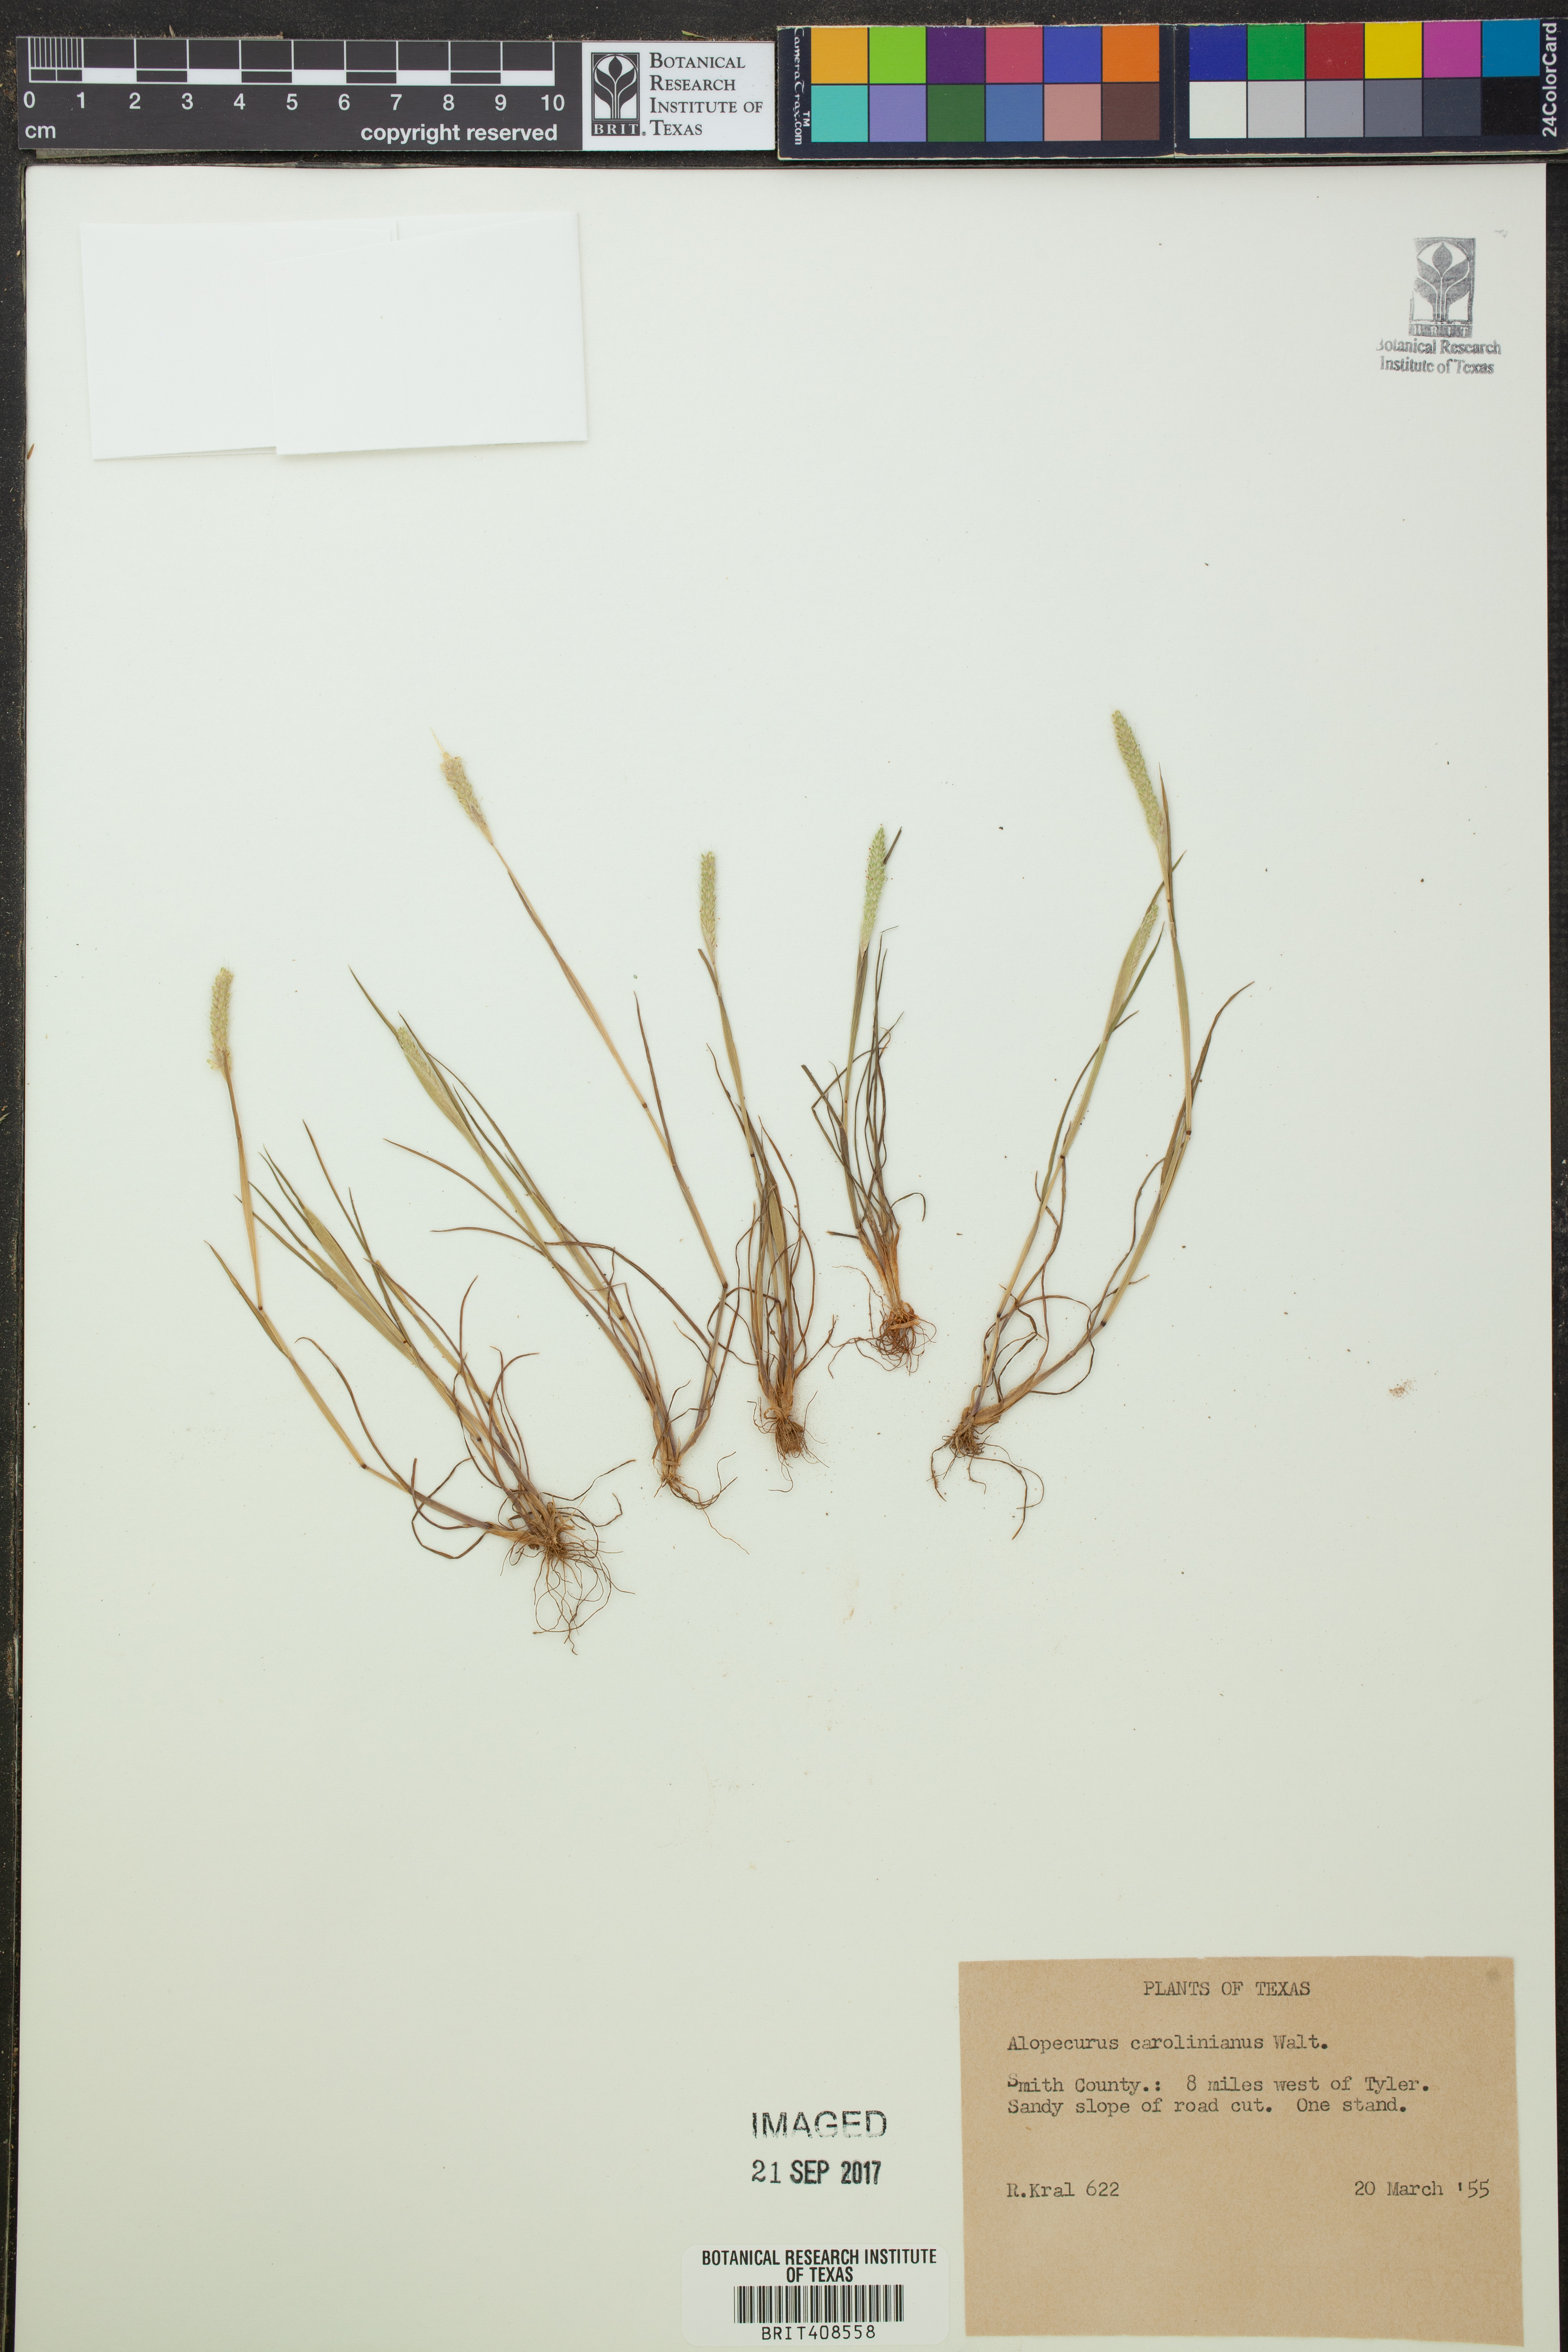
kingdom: Plantae
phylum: Tracheophyta
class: Liliopsida
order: Poales
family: Poaceae
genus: Alopecurus
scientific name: Alopecurus carolinianus
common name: Tufted foxtail
